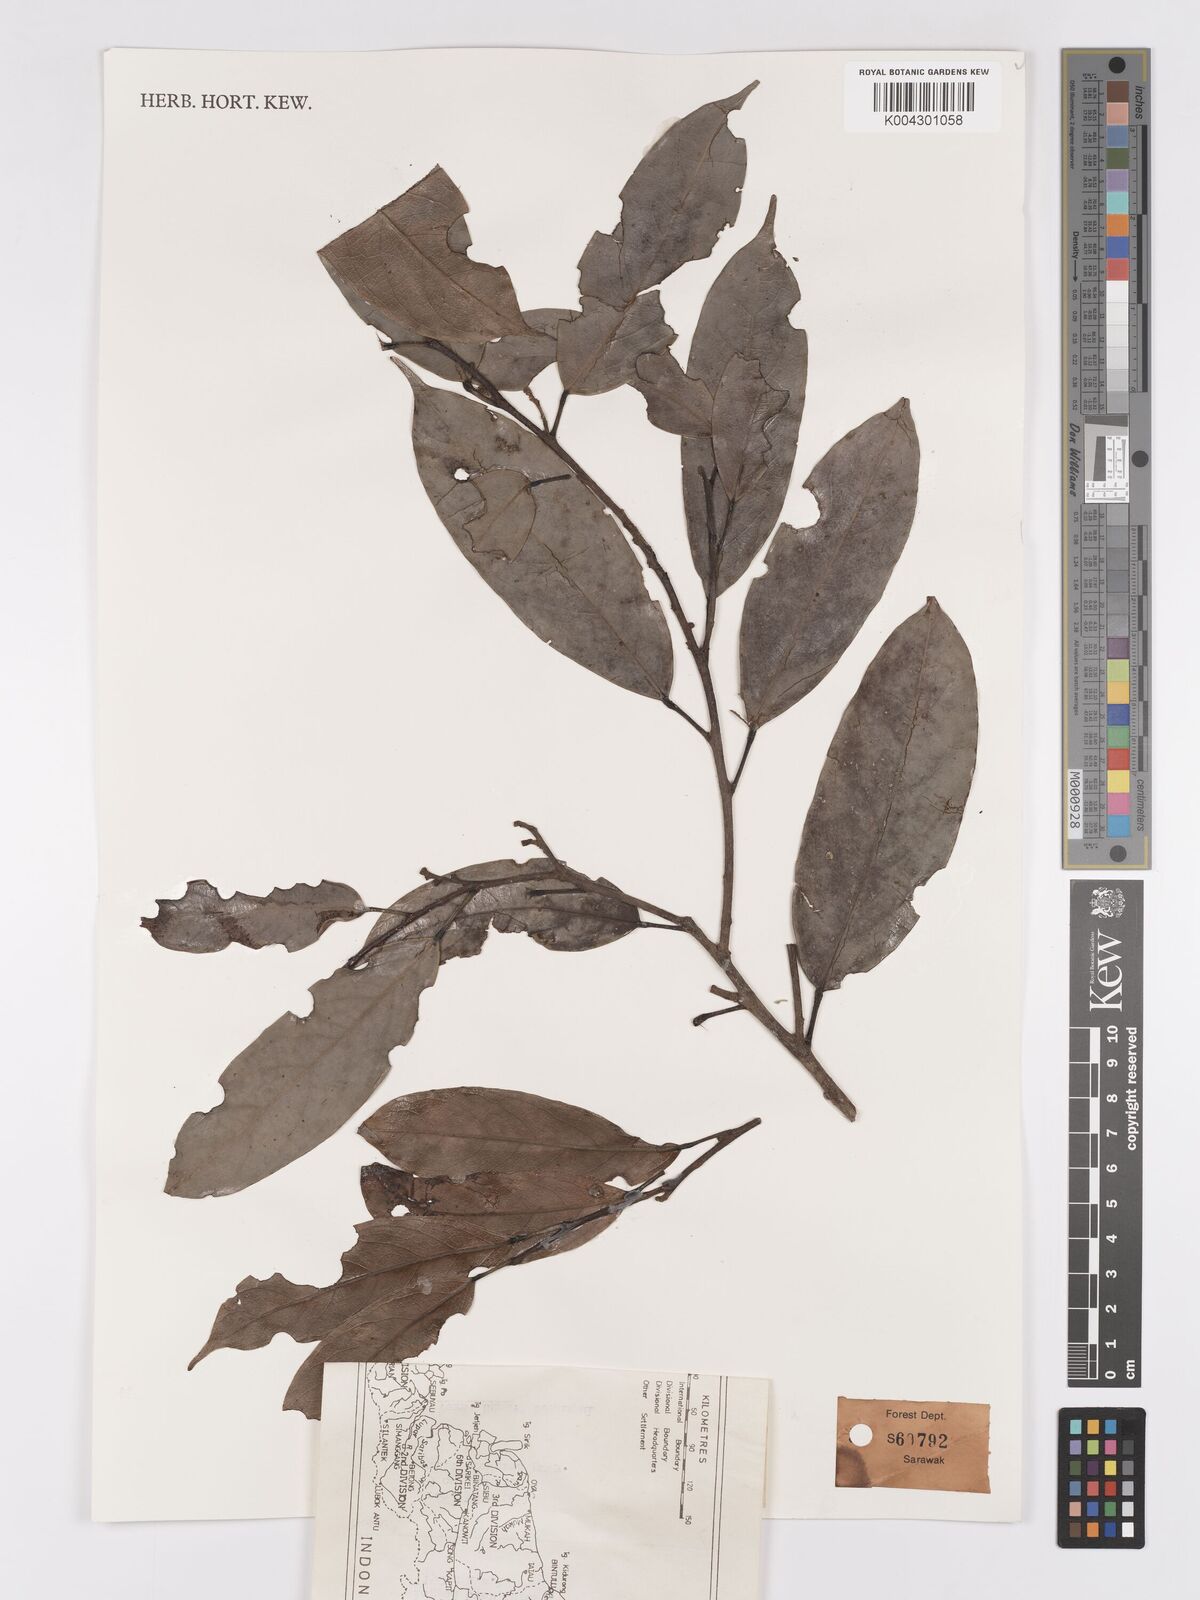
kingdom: Plantae
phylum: Tracheophyta
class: Magnoliopsida
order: Malpighiales
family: Achariaceae
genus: Hydnocarpus
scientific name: Hydnocarpus woodii
